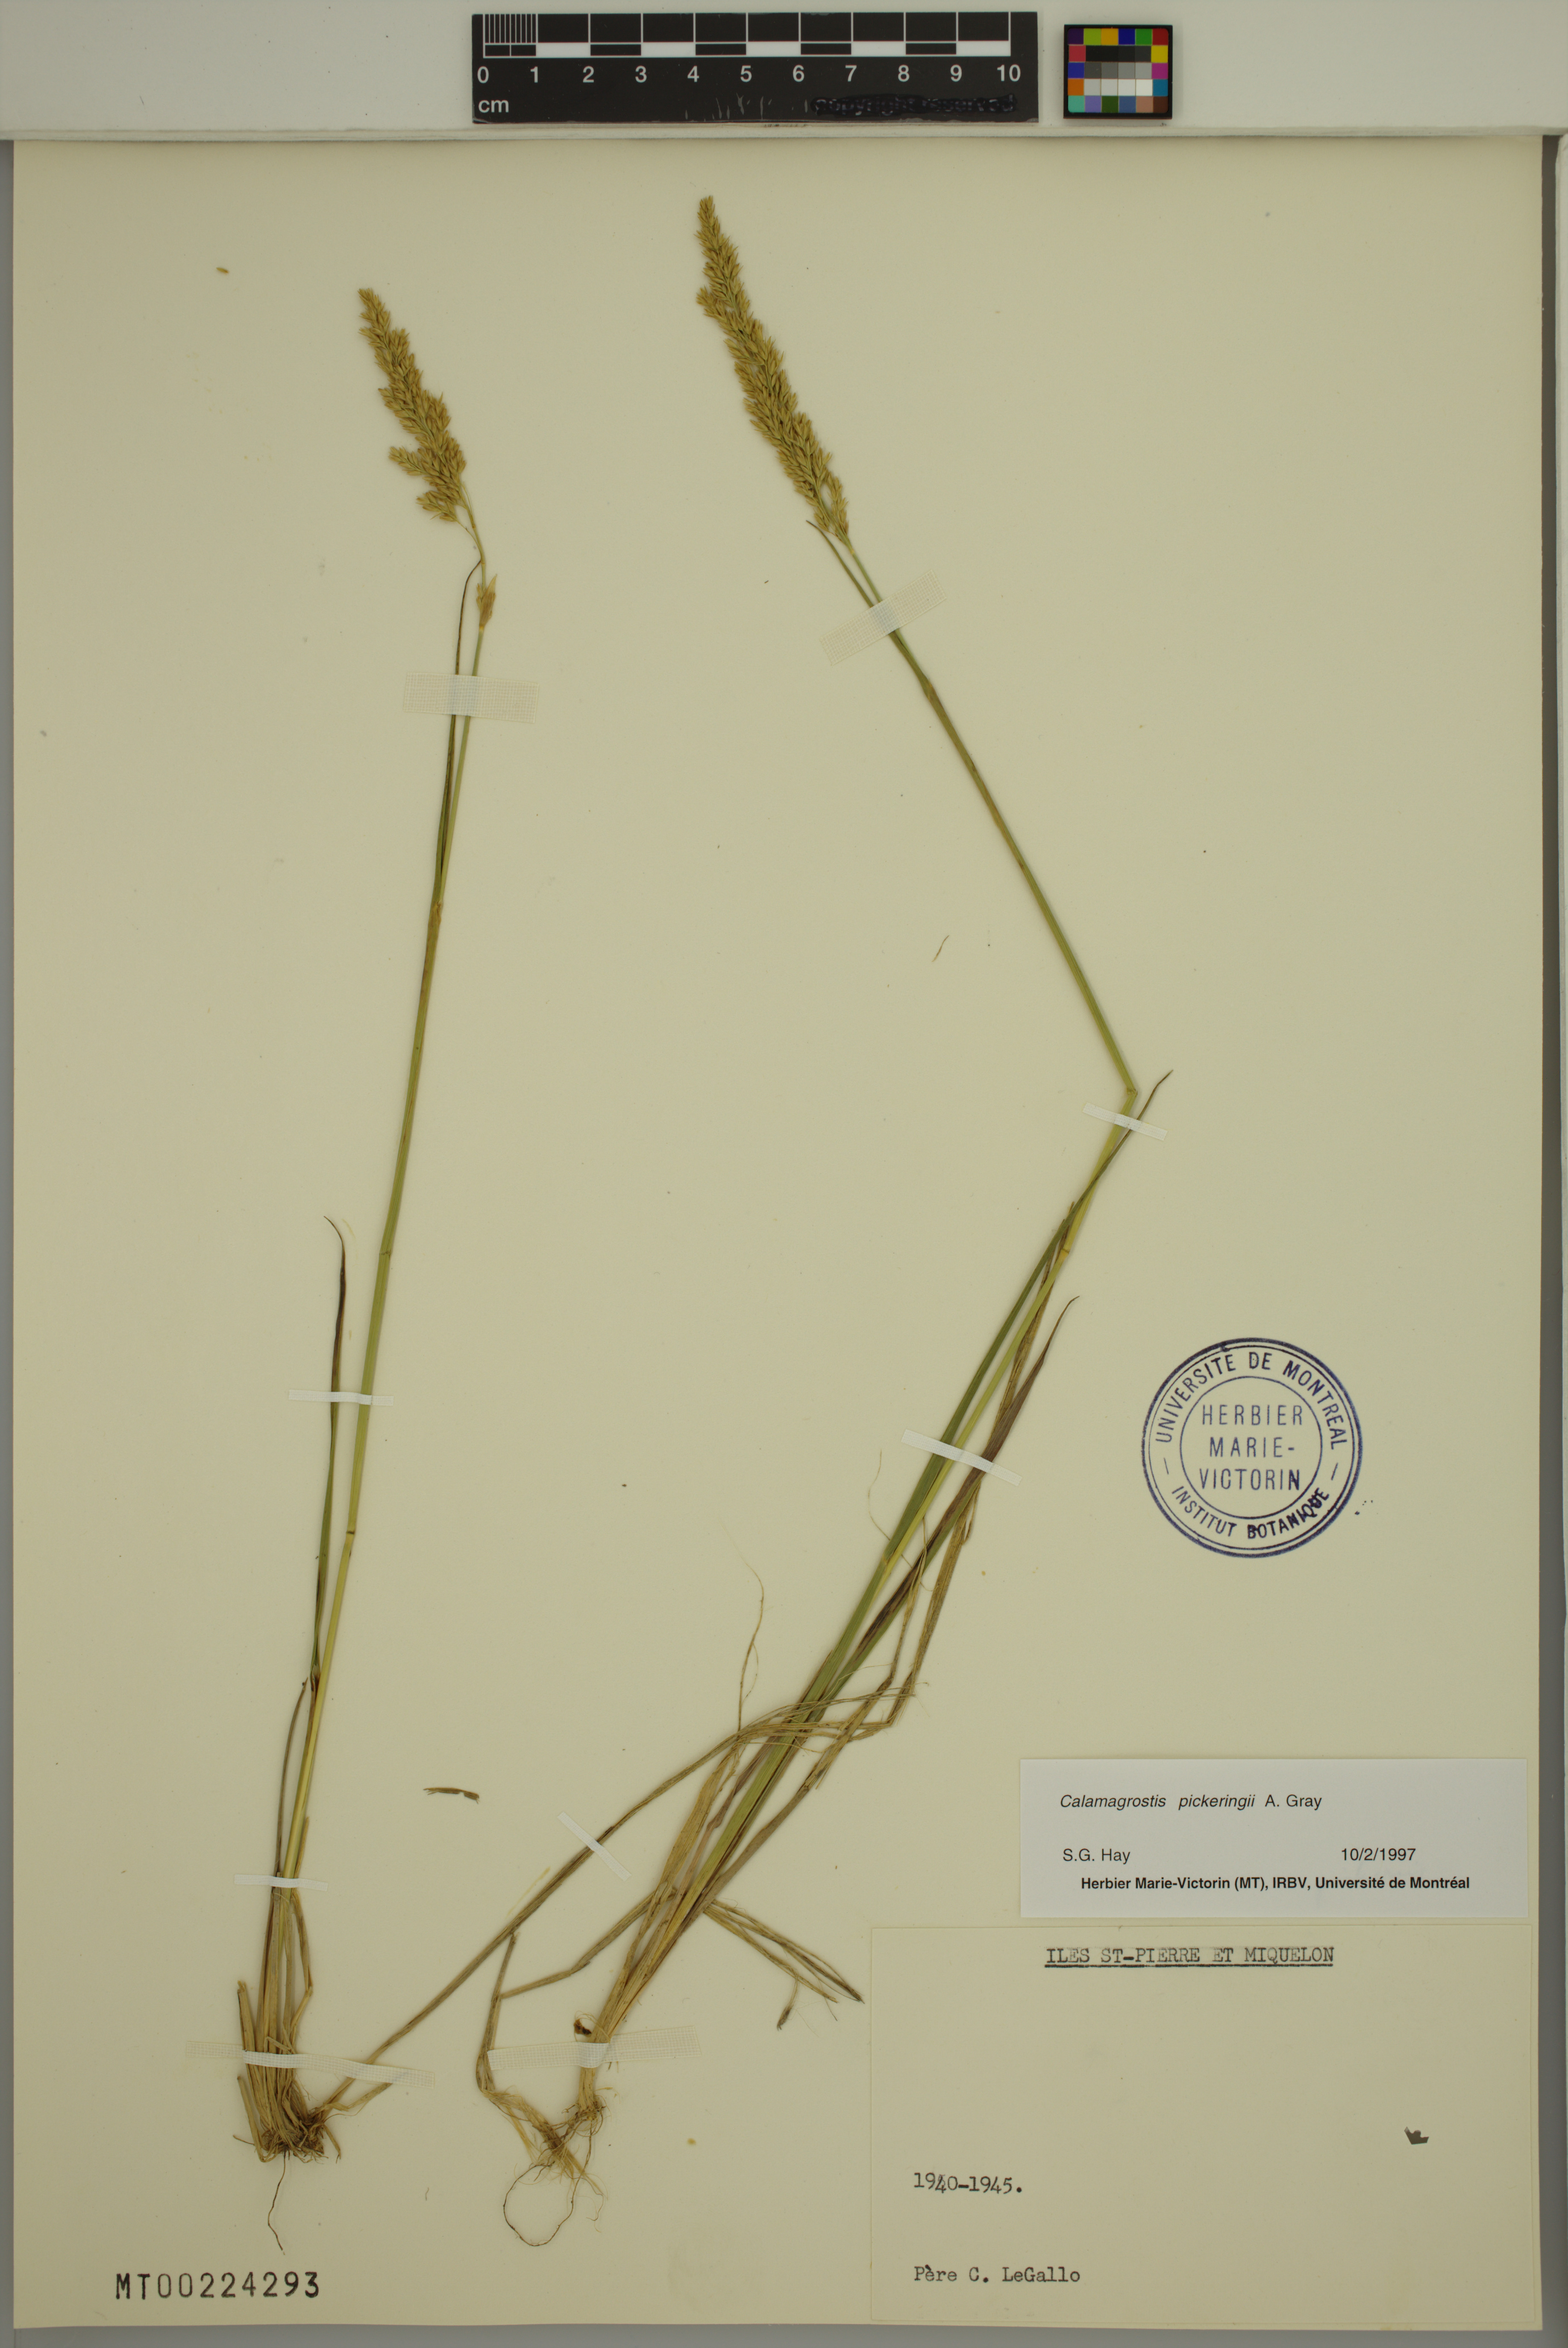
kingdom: Plantae
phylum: Tracheophyta
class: Liliopsida
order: Poales
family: Poaceae
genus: Calamagrostis
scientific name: Calamagrostis pickeringii
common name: Pickering's reed bentgrass
